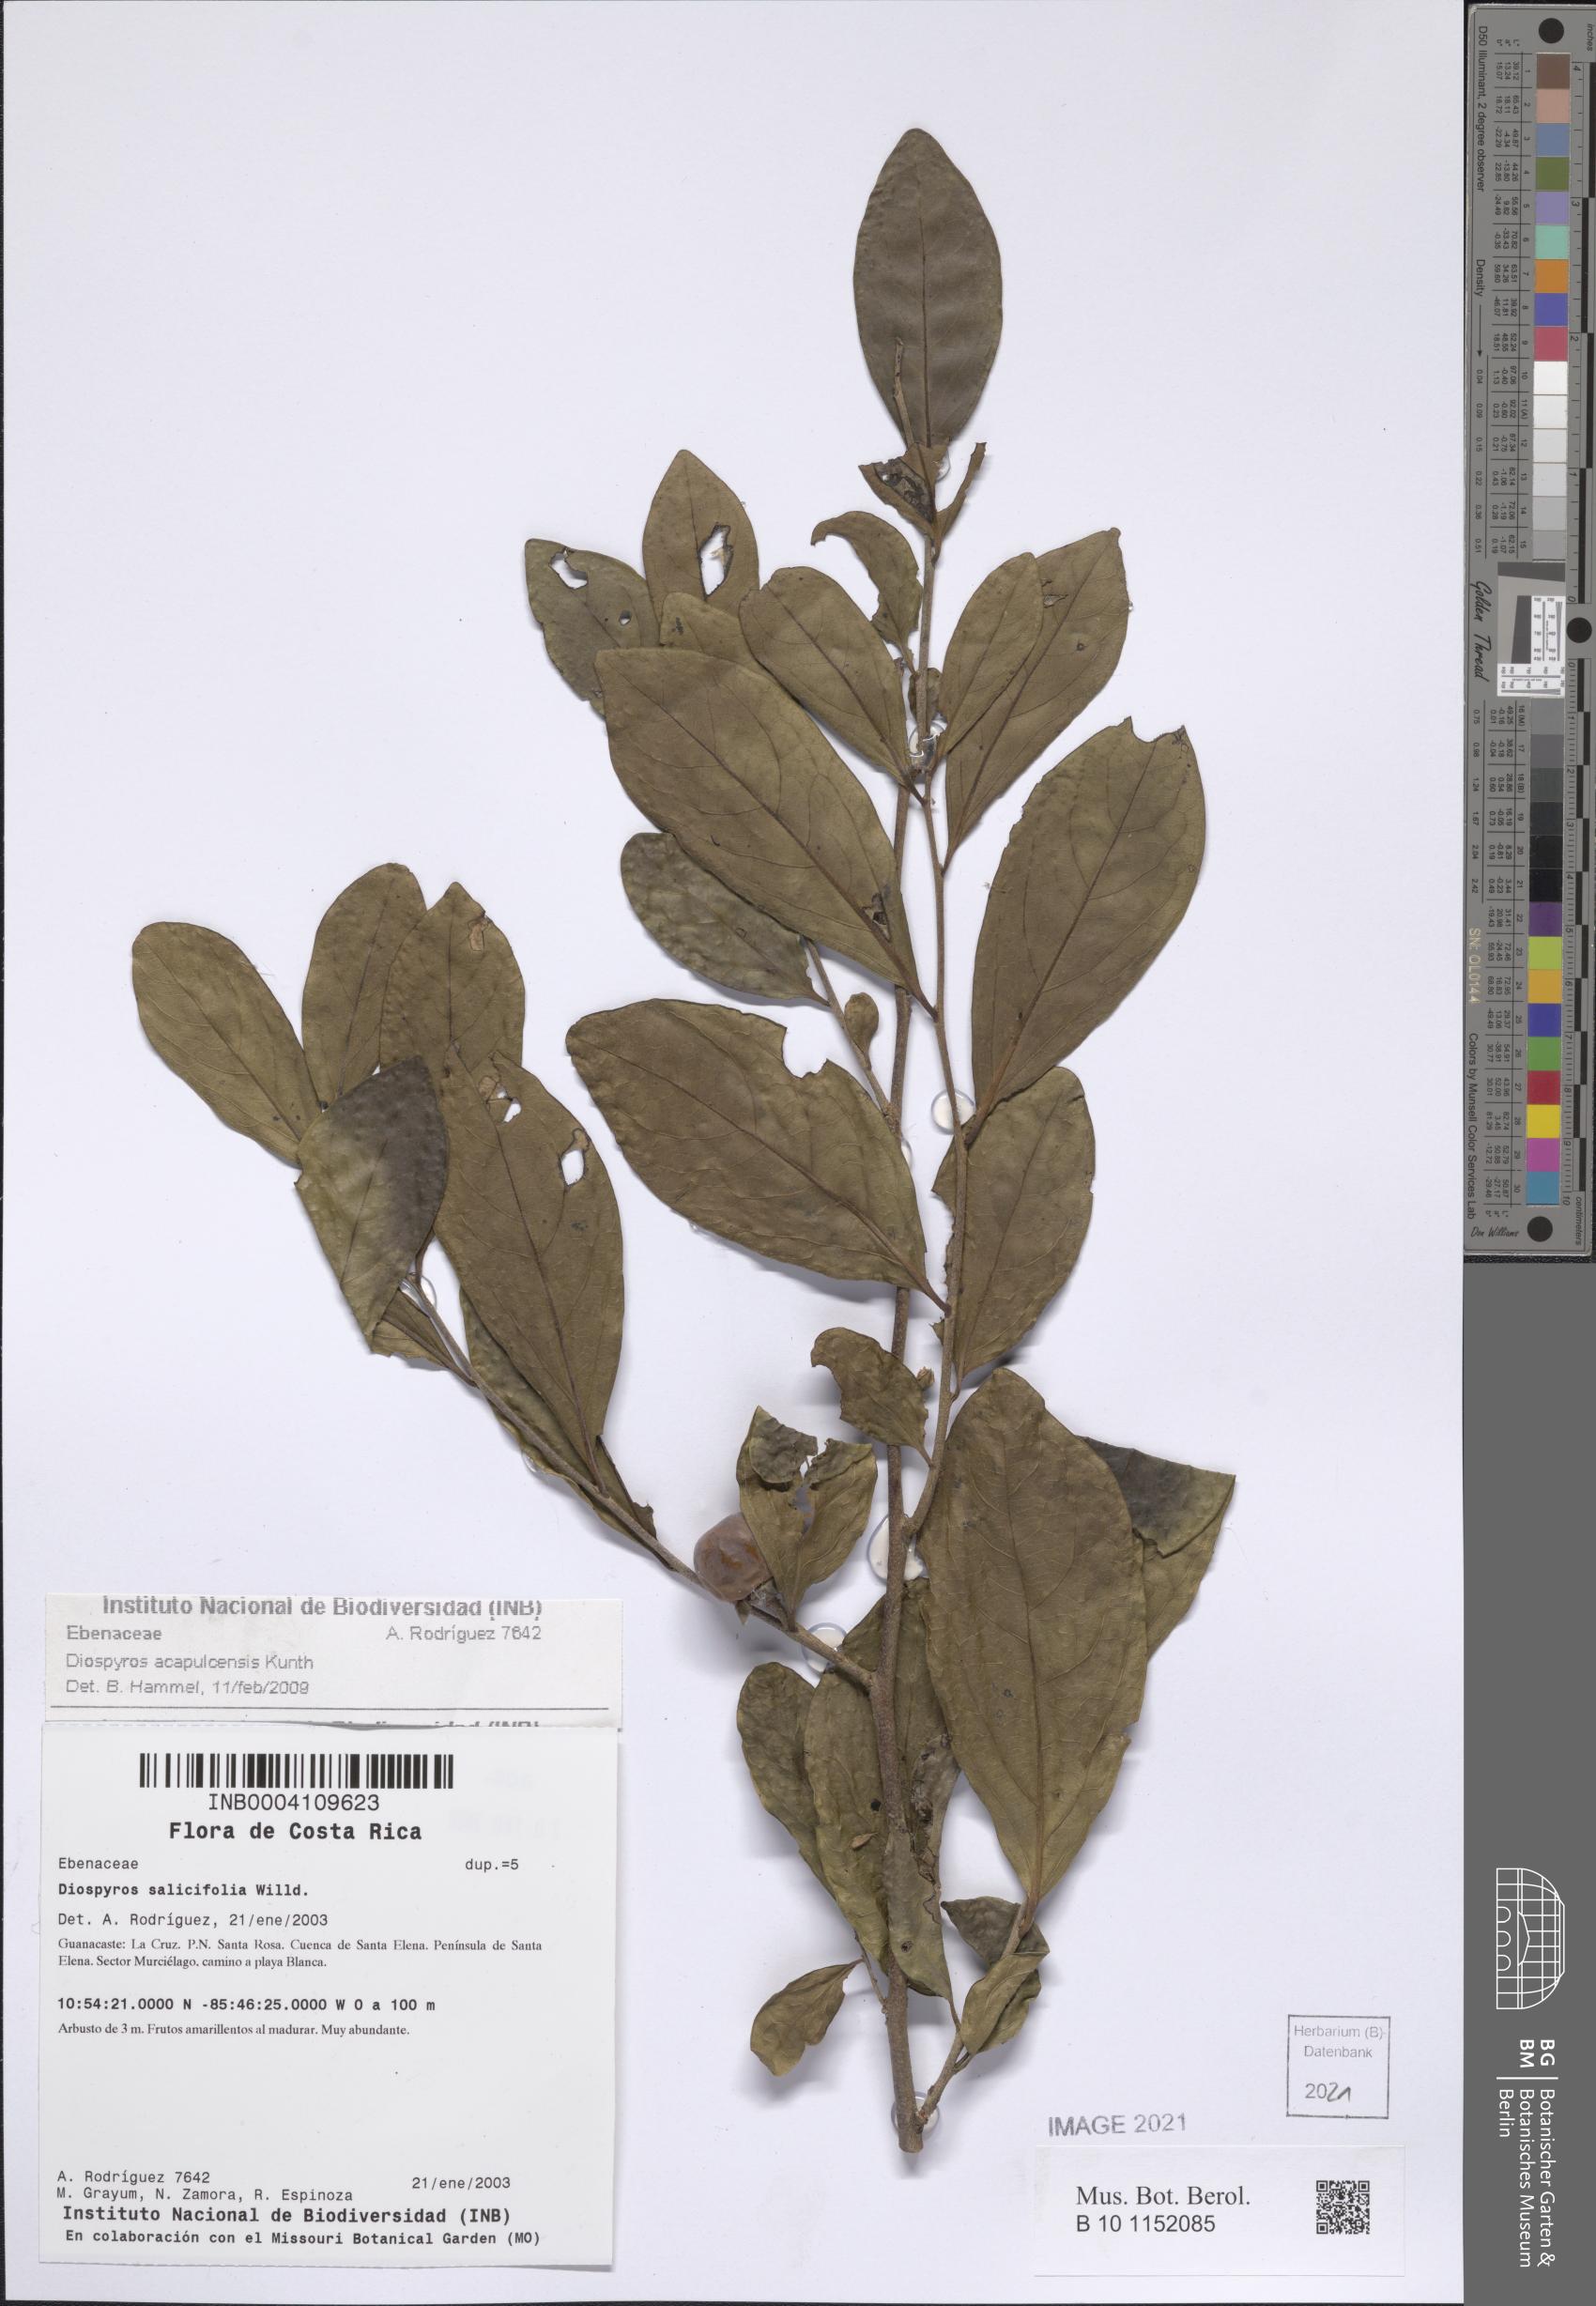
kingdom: Plantae
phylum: Tracheophyta
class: Magnoliopsida
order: Ericales
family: Ebenaceae
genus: Diospyros
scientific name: Diospyros acapulcensis
